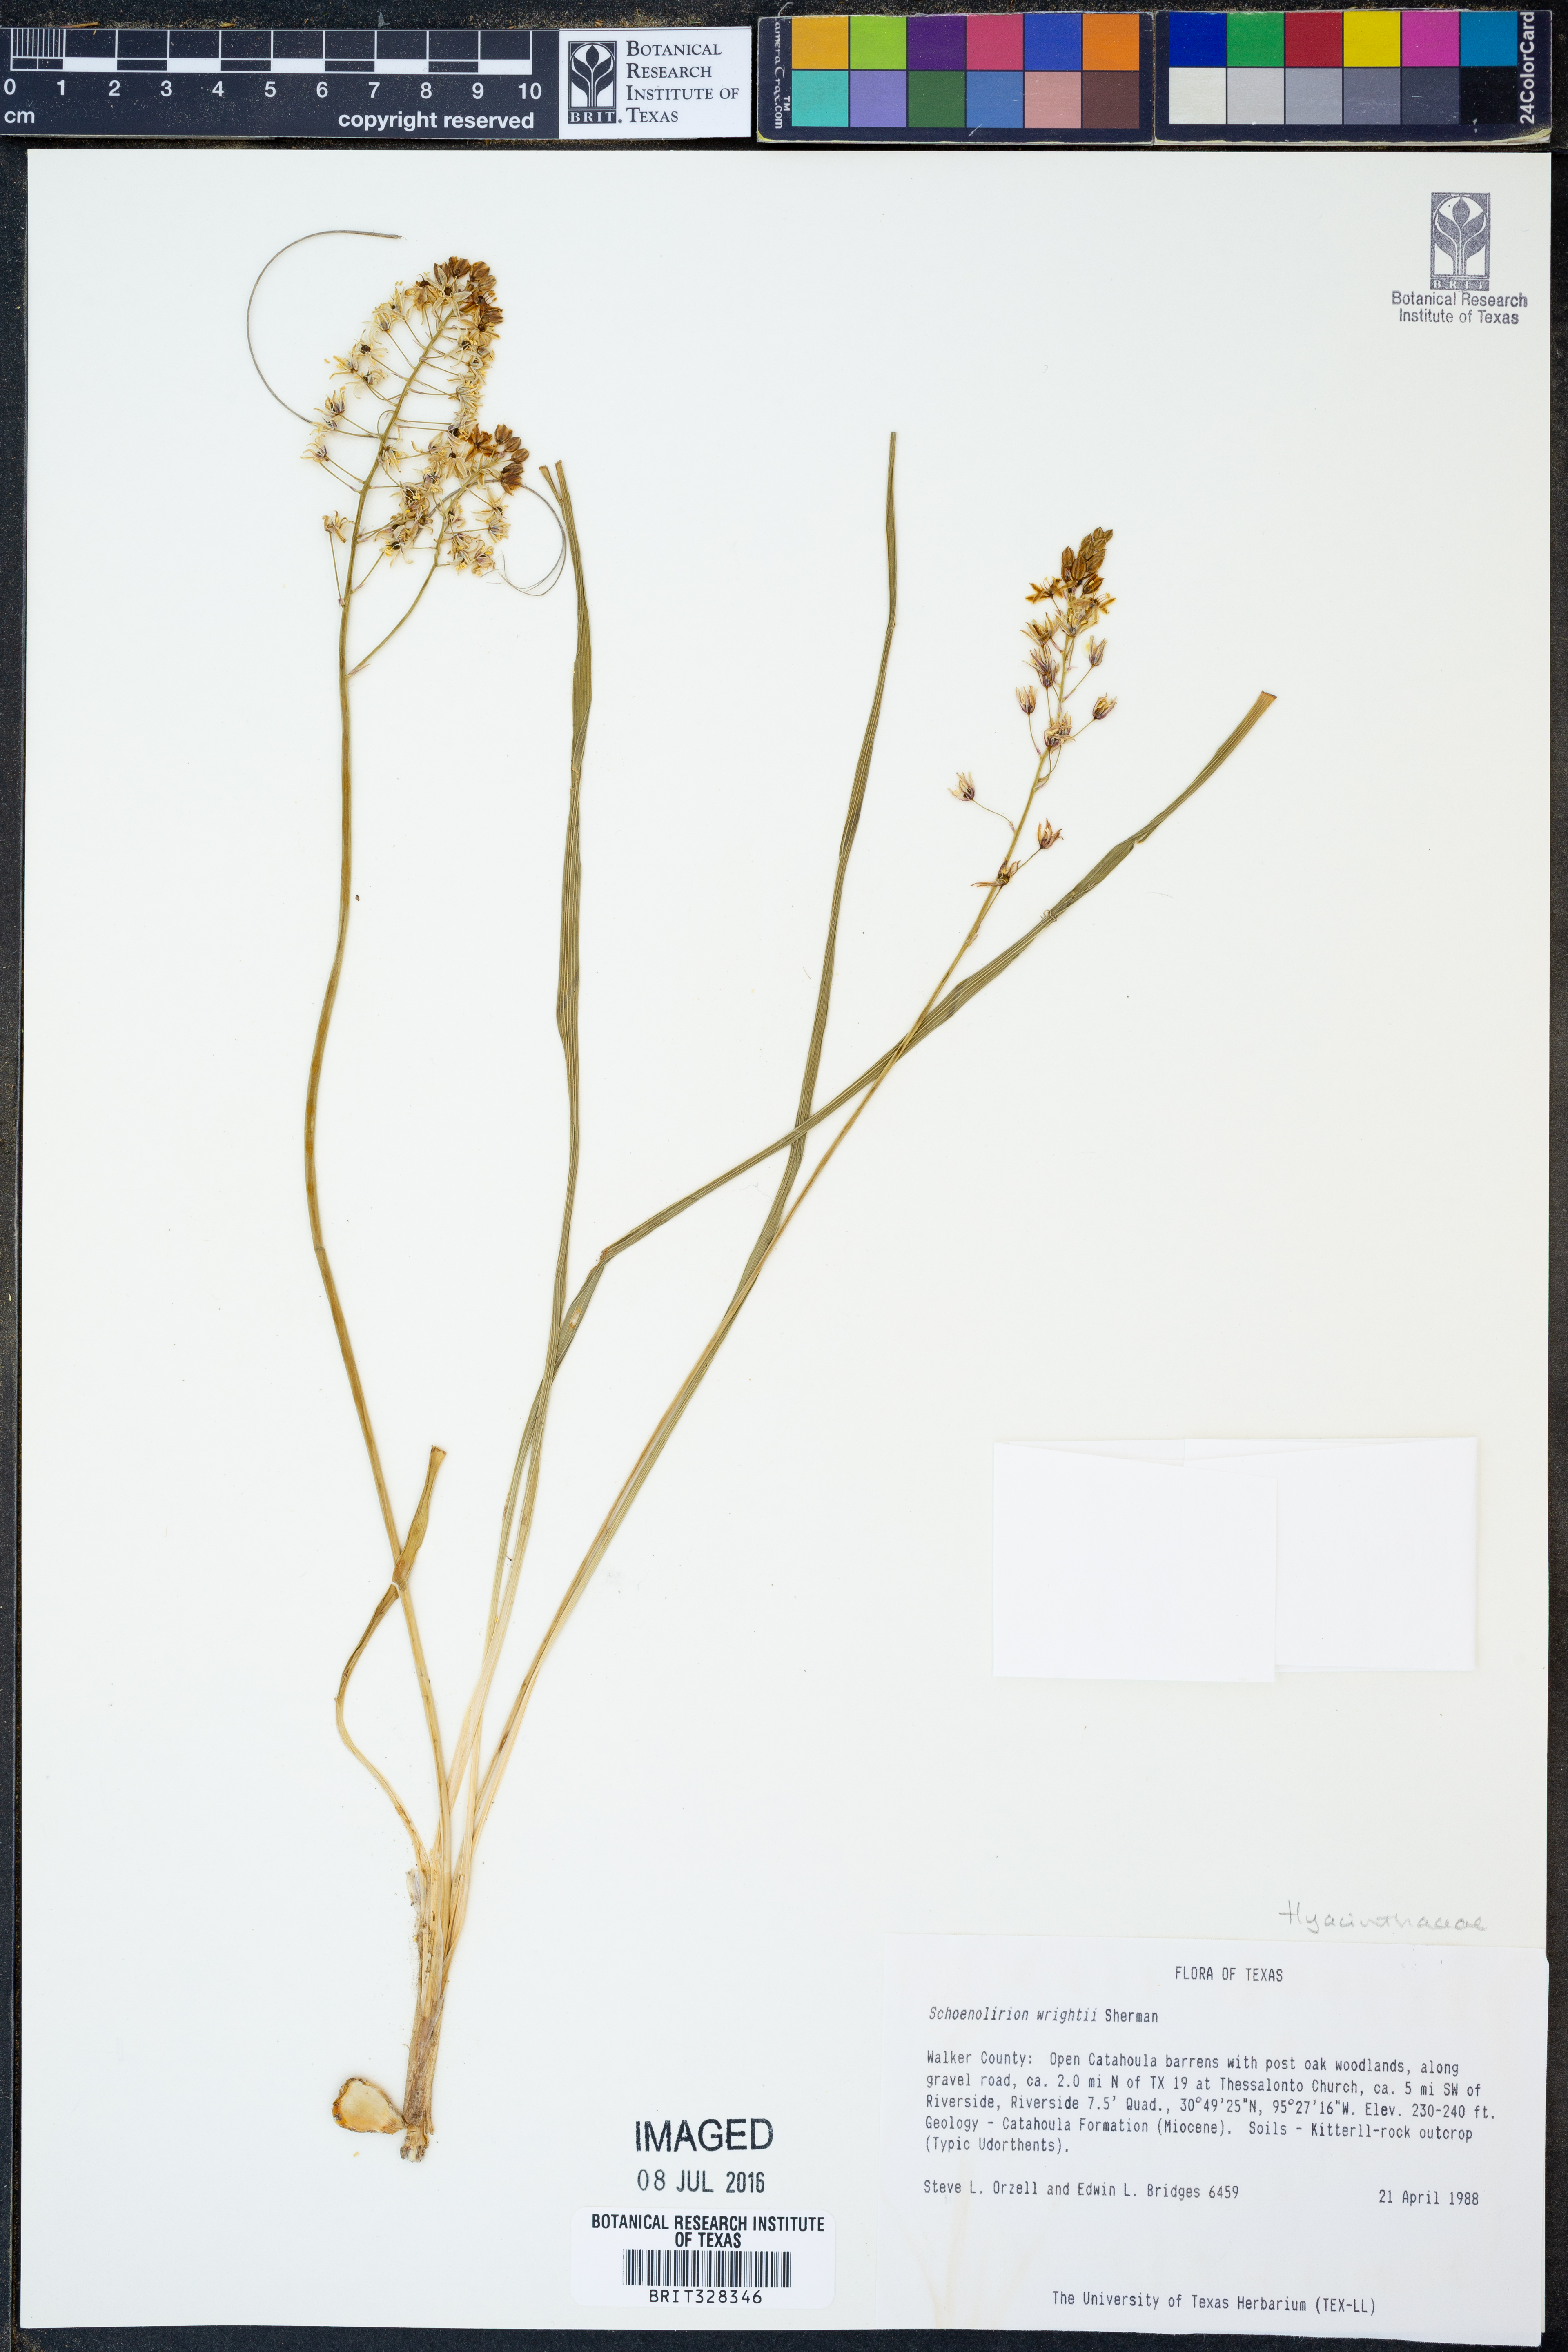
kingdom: Plantae
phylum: Tracheophyta
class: Liliopsida
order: Asparagales
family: Asparagaceae
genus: Schoenolirion
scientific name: Schoenolirion wrightii
